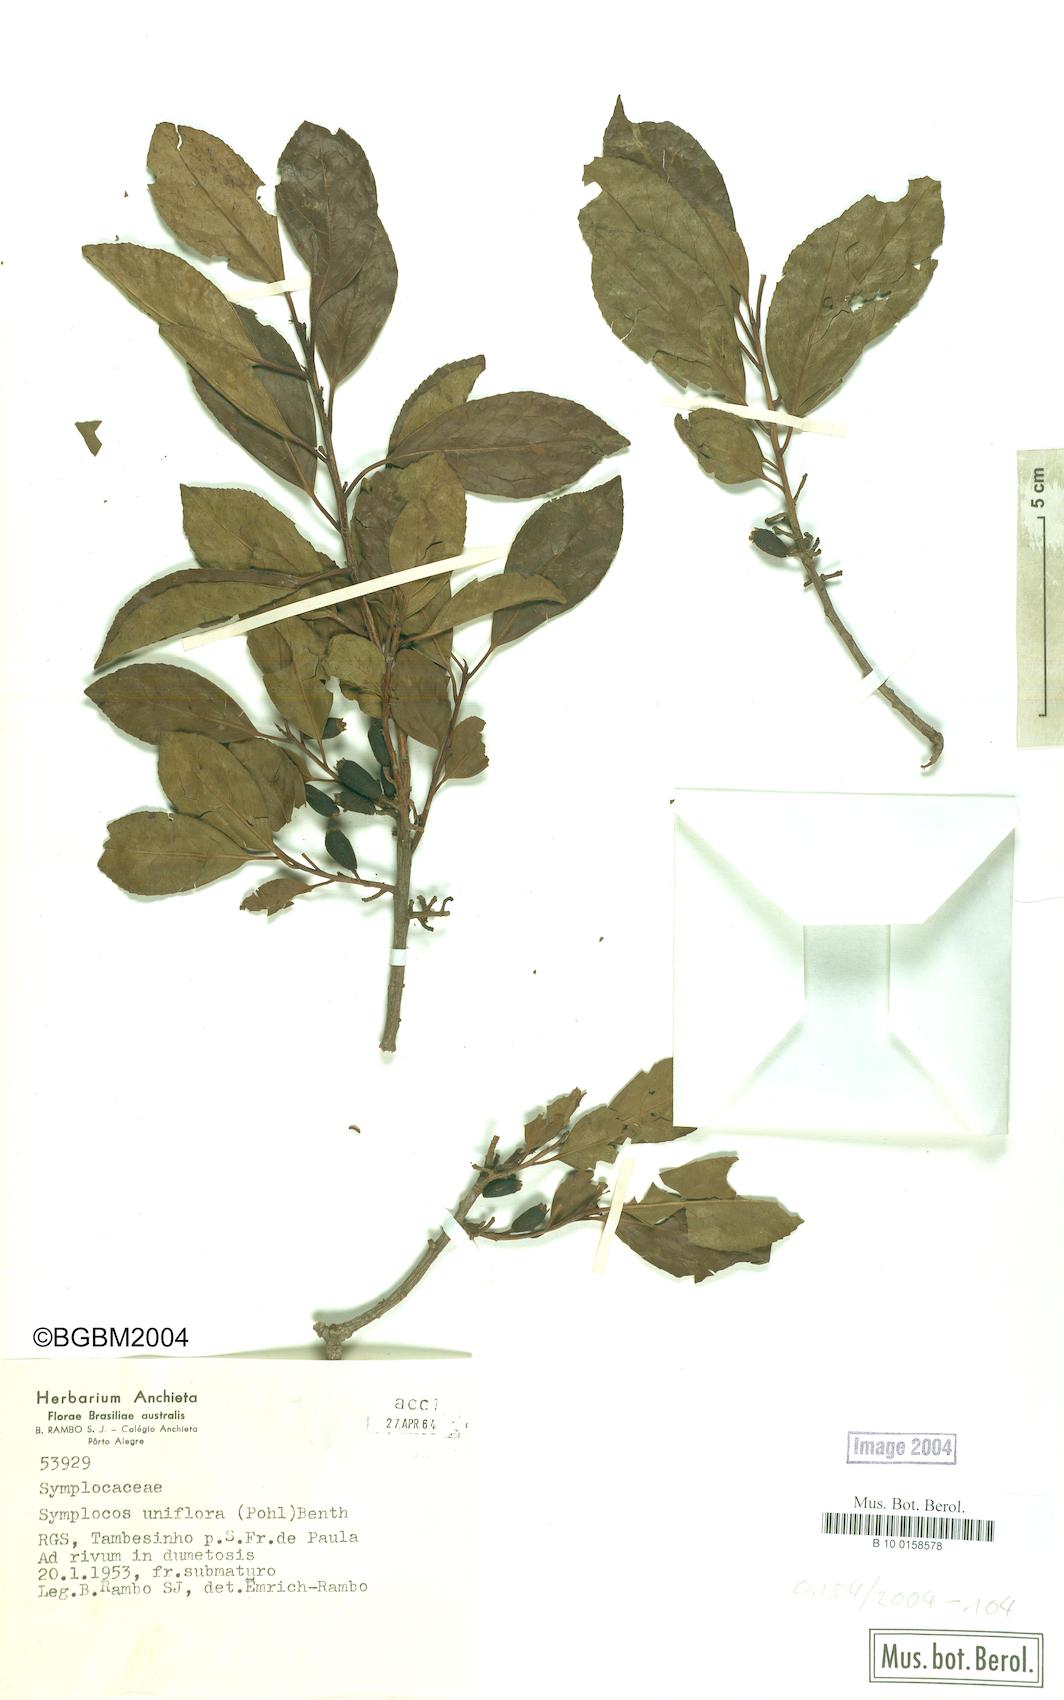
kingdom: Plantae
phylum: Tracheophyta
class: Magnoliopsida
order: Ericales
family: Symplocaceae
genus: Symplocos
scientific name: Symplocos uniflora
